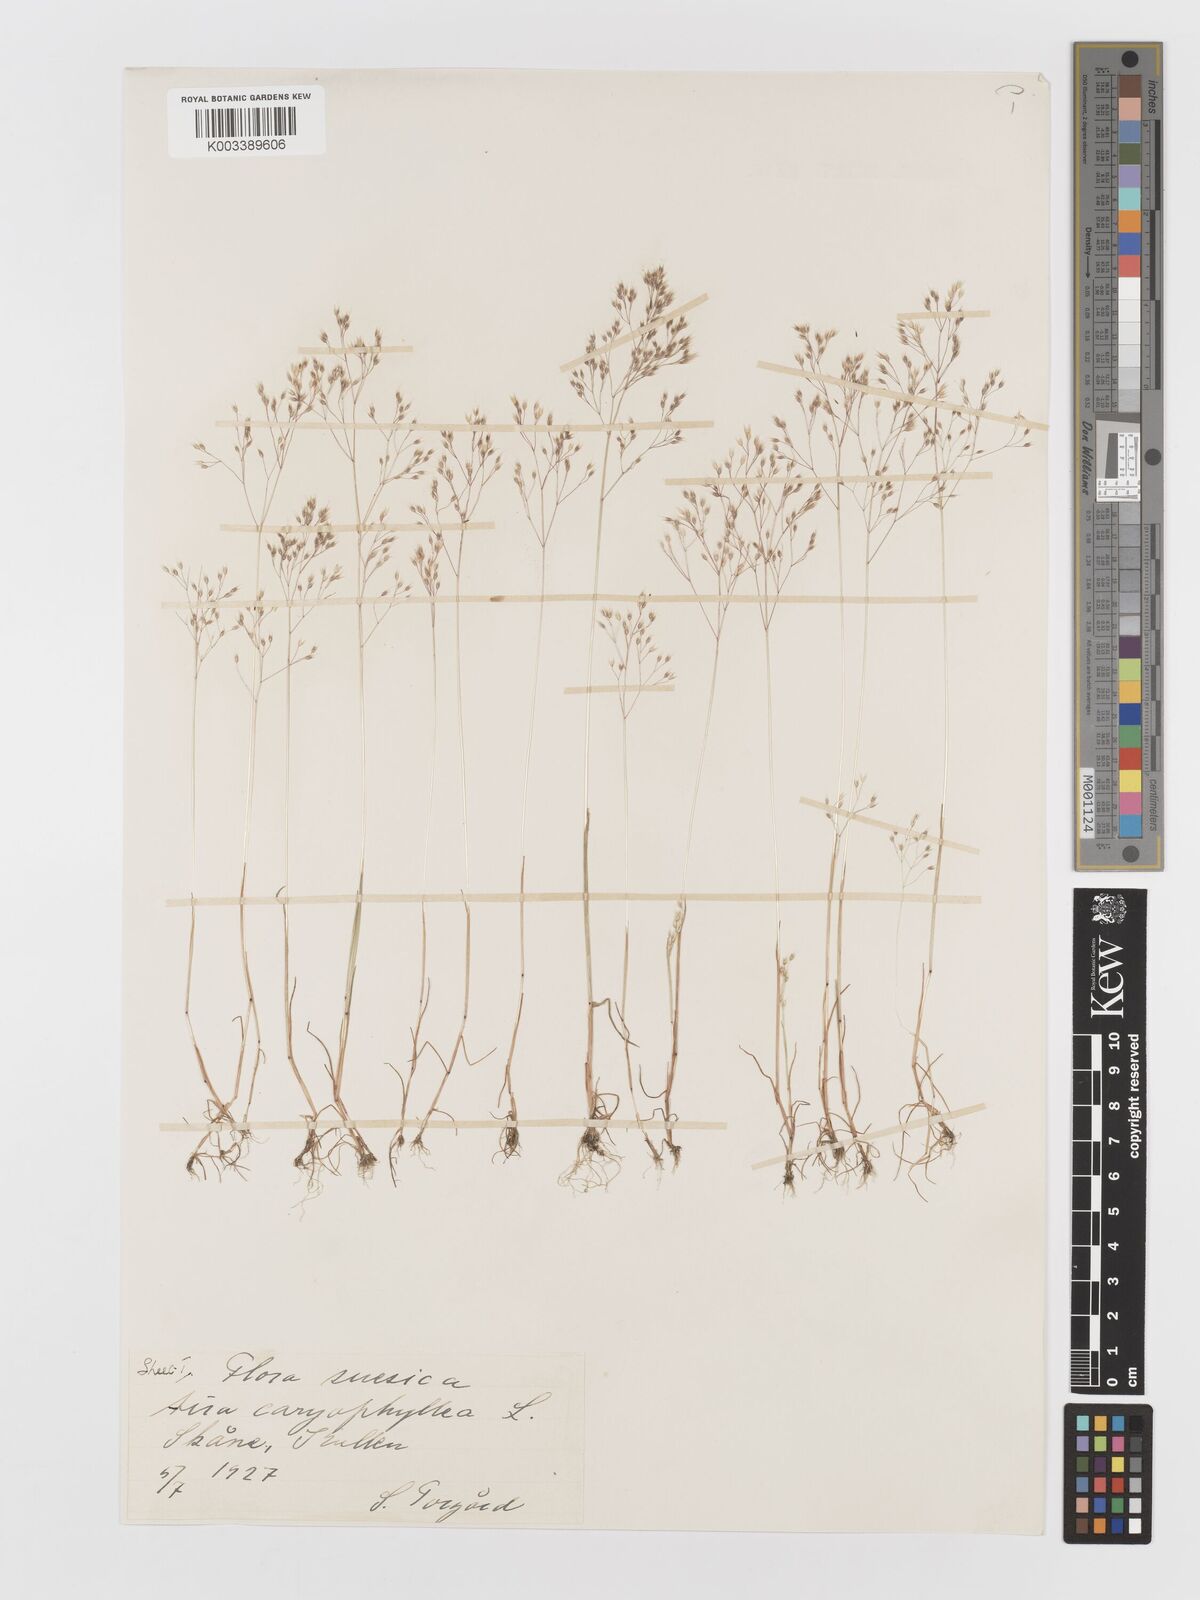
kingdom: Plantae
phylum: Tracheophyta
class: Liliopsida
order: Poales
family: Poaceae
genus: Aira
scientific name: Aira caryophyllea
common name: Silver hairgrass
